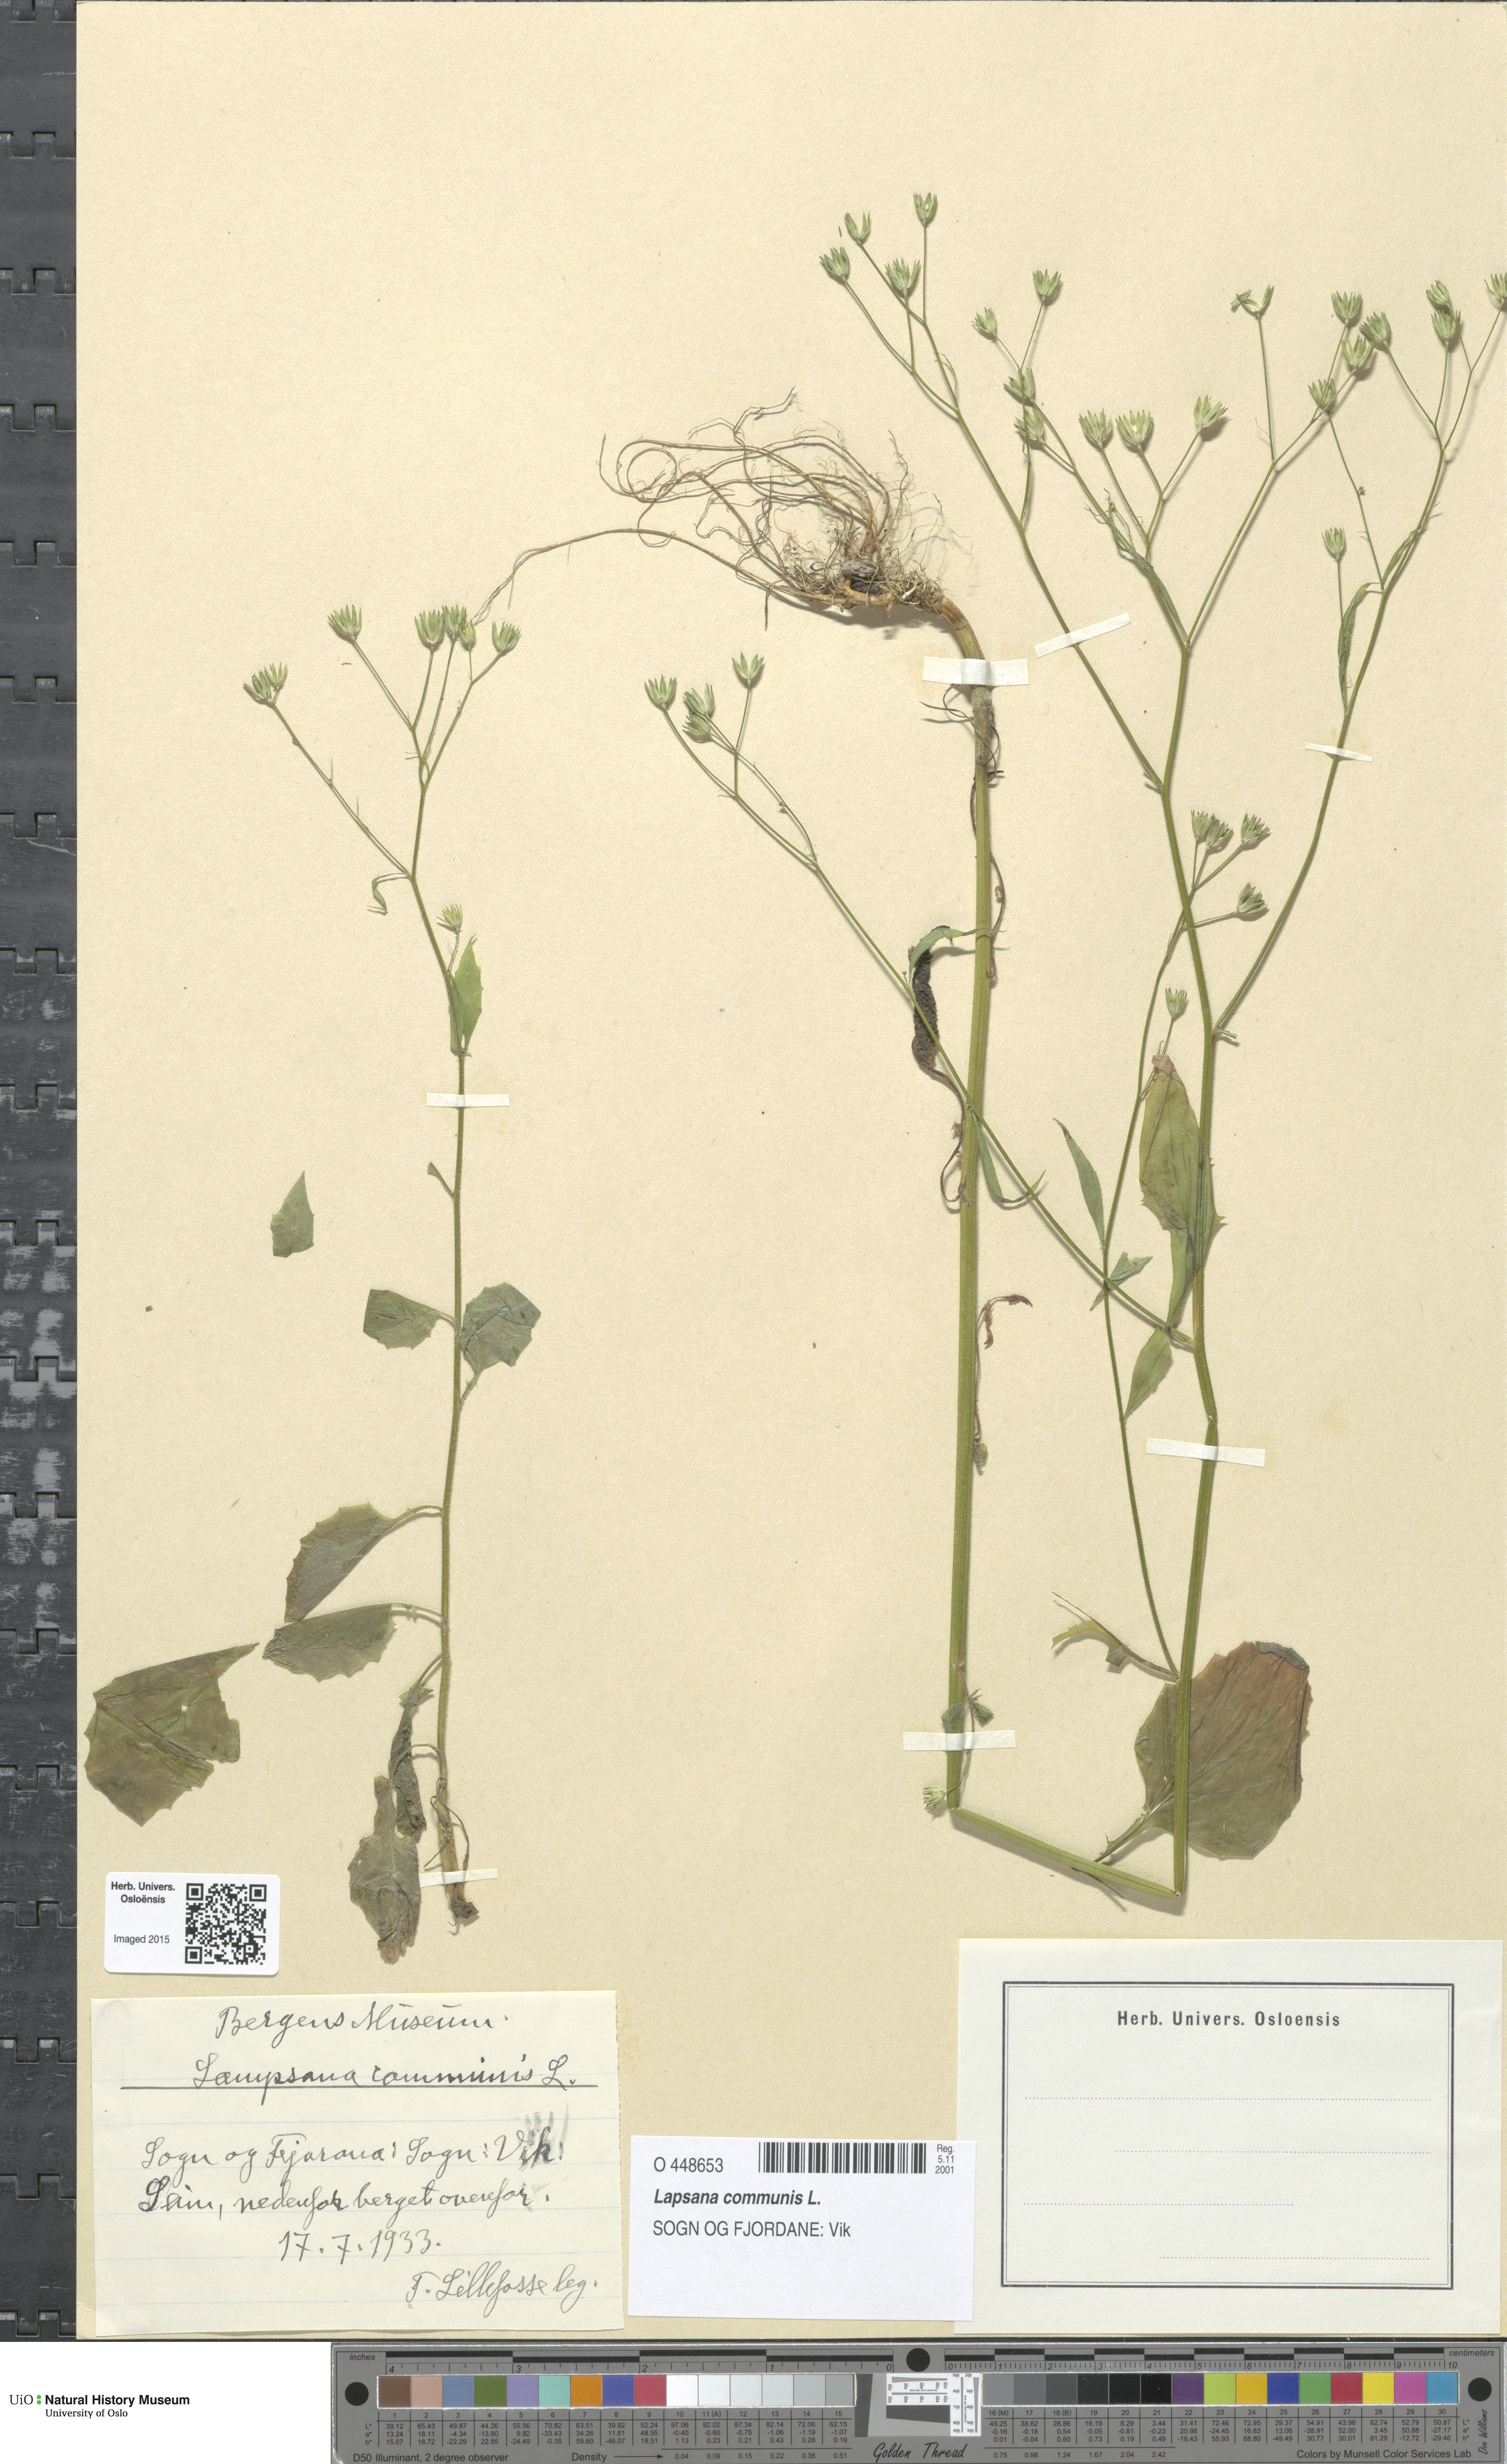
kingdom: Plantae
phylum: Tracheophyta
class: Magnoliopsida
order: Asterales
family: Asteraceae
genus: Lapsana
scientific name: Lapsana communis
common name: Nipplewort
